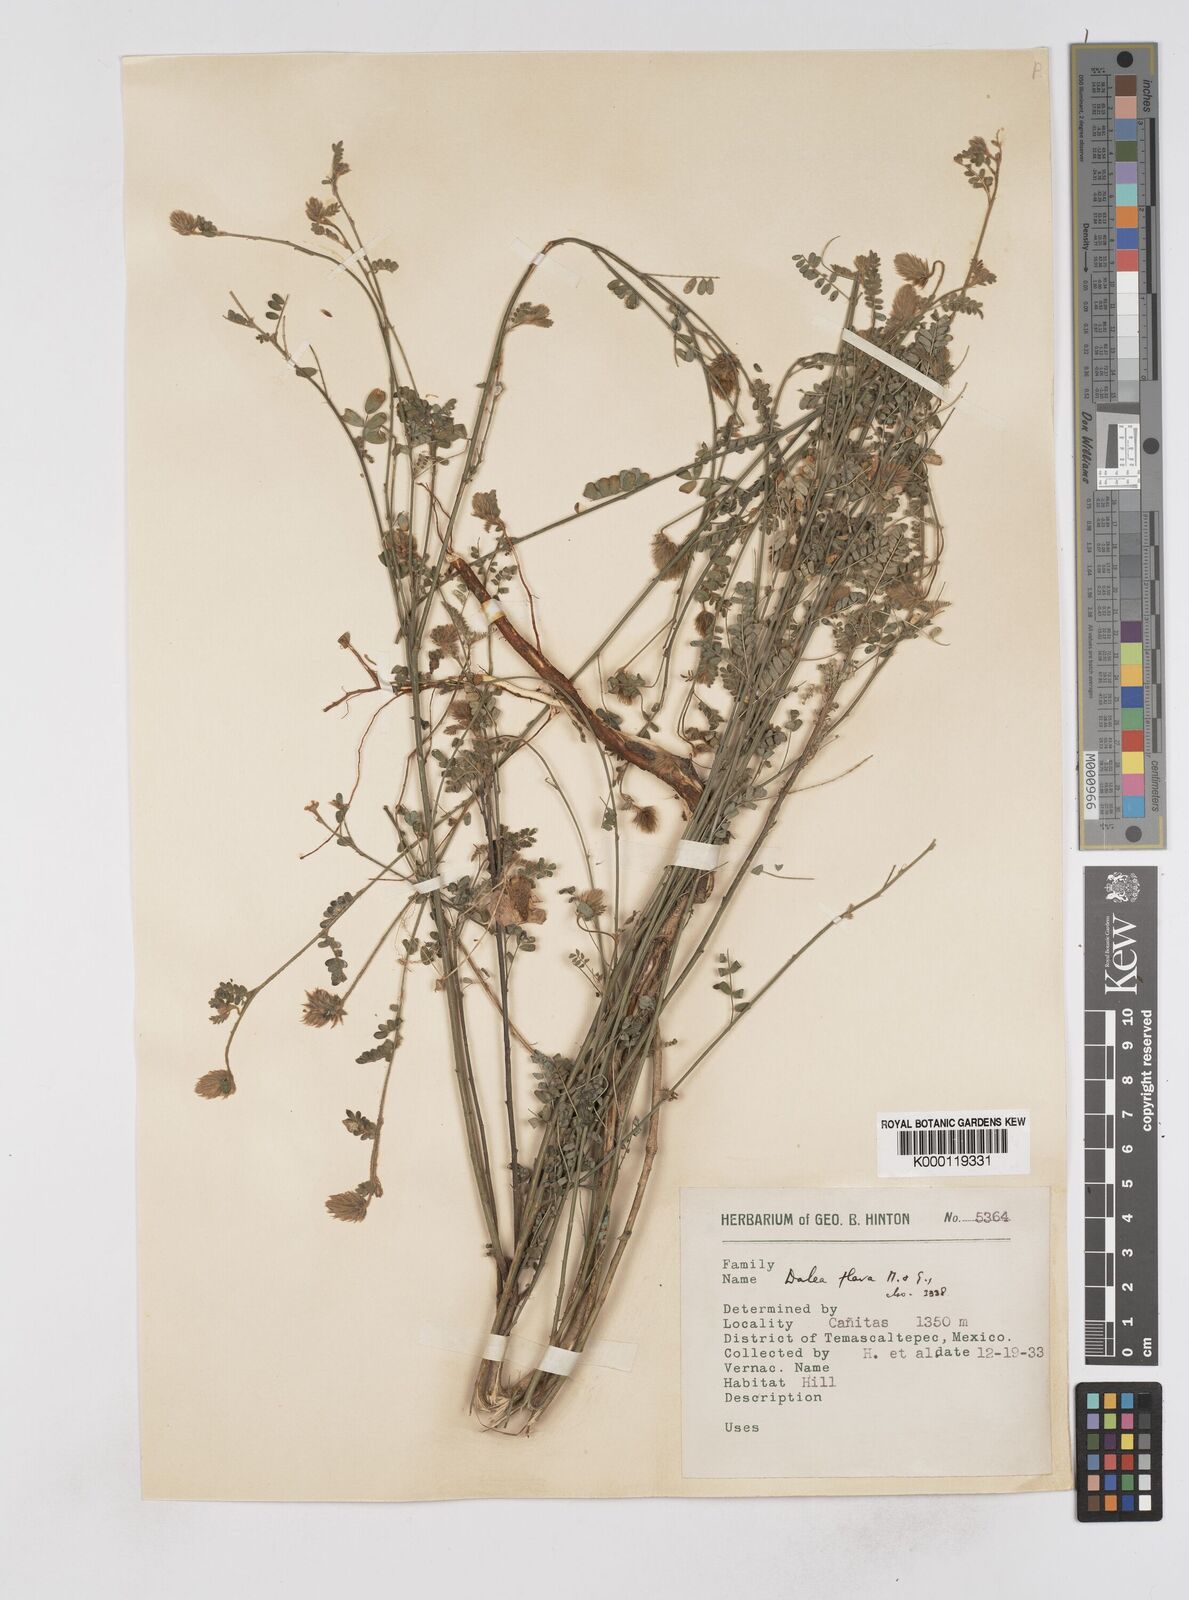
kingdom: Plantae
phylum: Tracheophyta
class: Magnoliopsida
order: Fabales
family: Fabaceae
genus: Dalea
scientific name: Dalea elata
